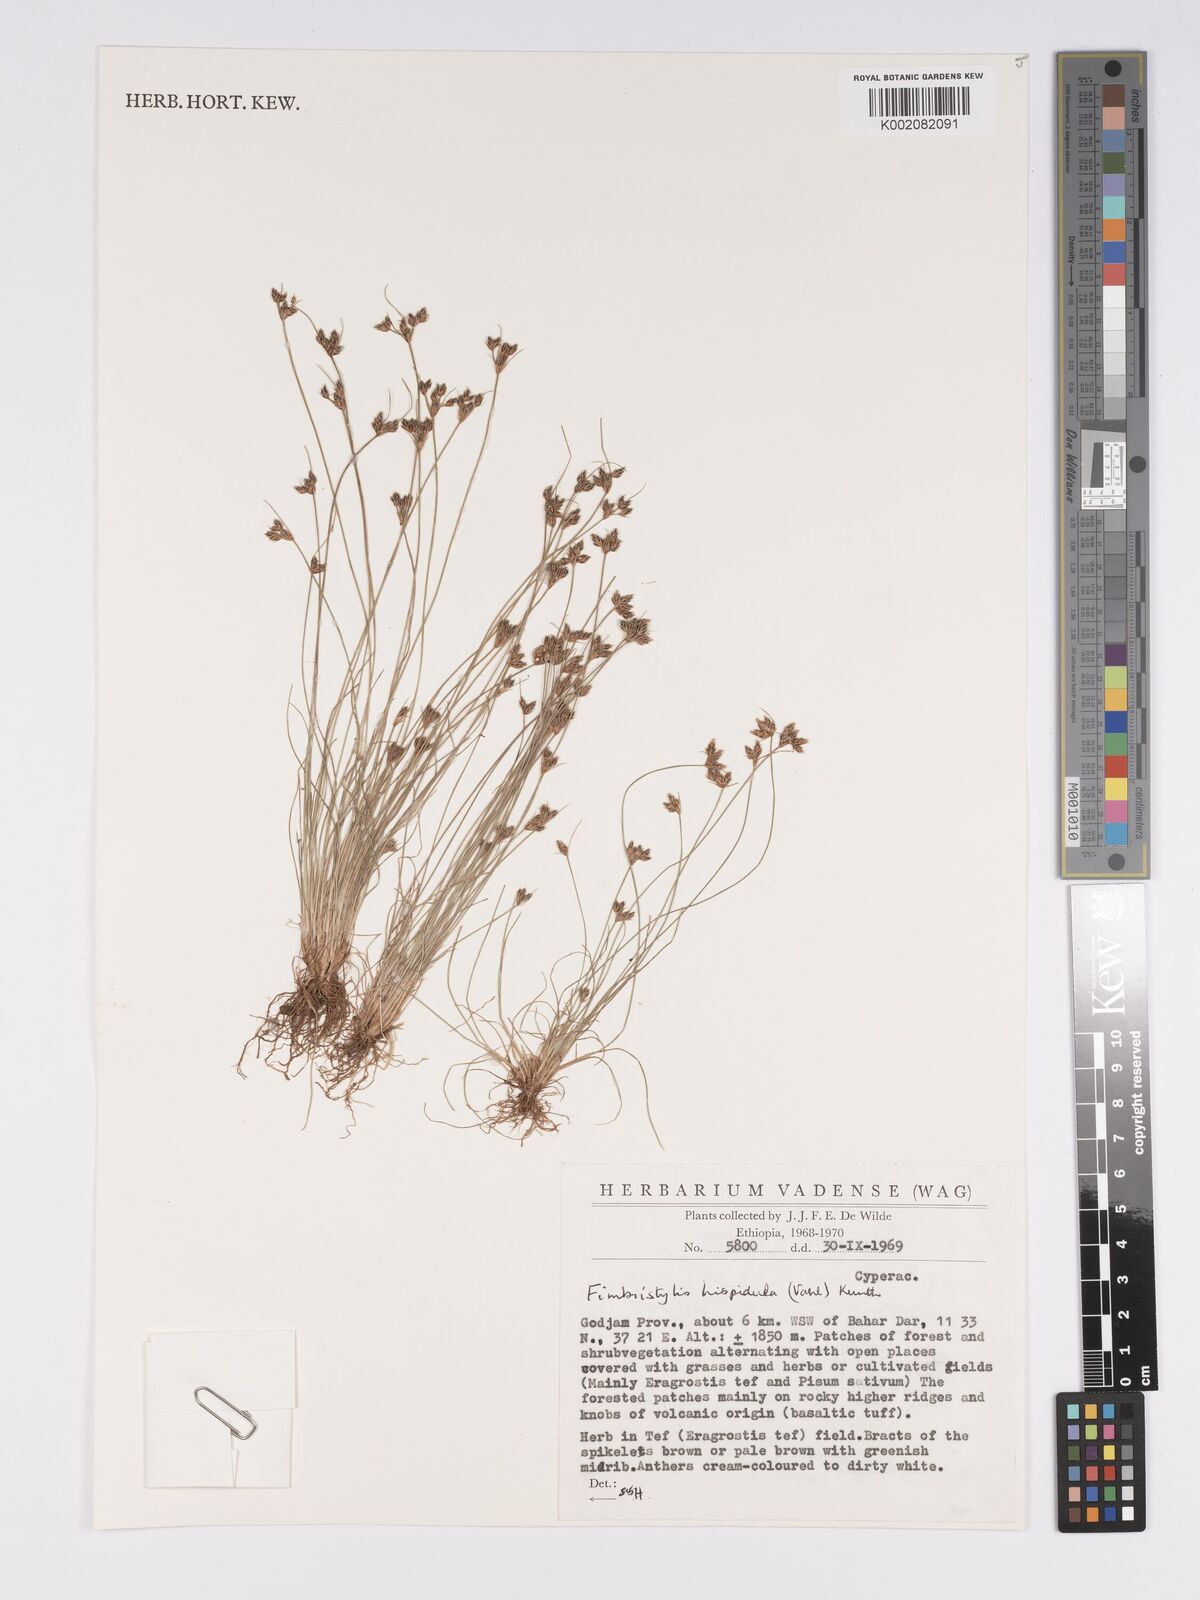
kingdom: Plantae
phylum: Tracheophyta
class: Liliopsida
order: Poales
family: Cyperaceae
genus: Bulbostylis
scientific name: Bulbostylis hispidula
